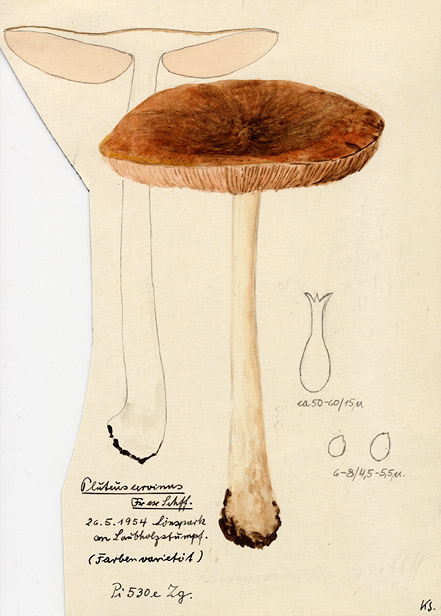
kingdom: Fungi
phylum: Basidiomycota
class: Agaricomycetes
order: Agaricales
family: Pluteaceae
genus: Pluteus
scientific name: Pluteus cervinus
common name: Deer shield
